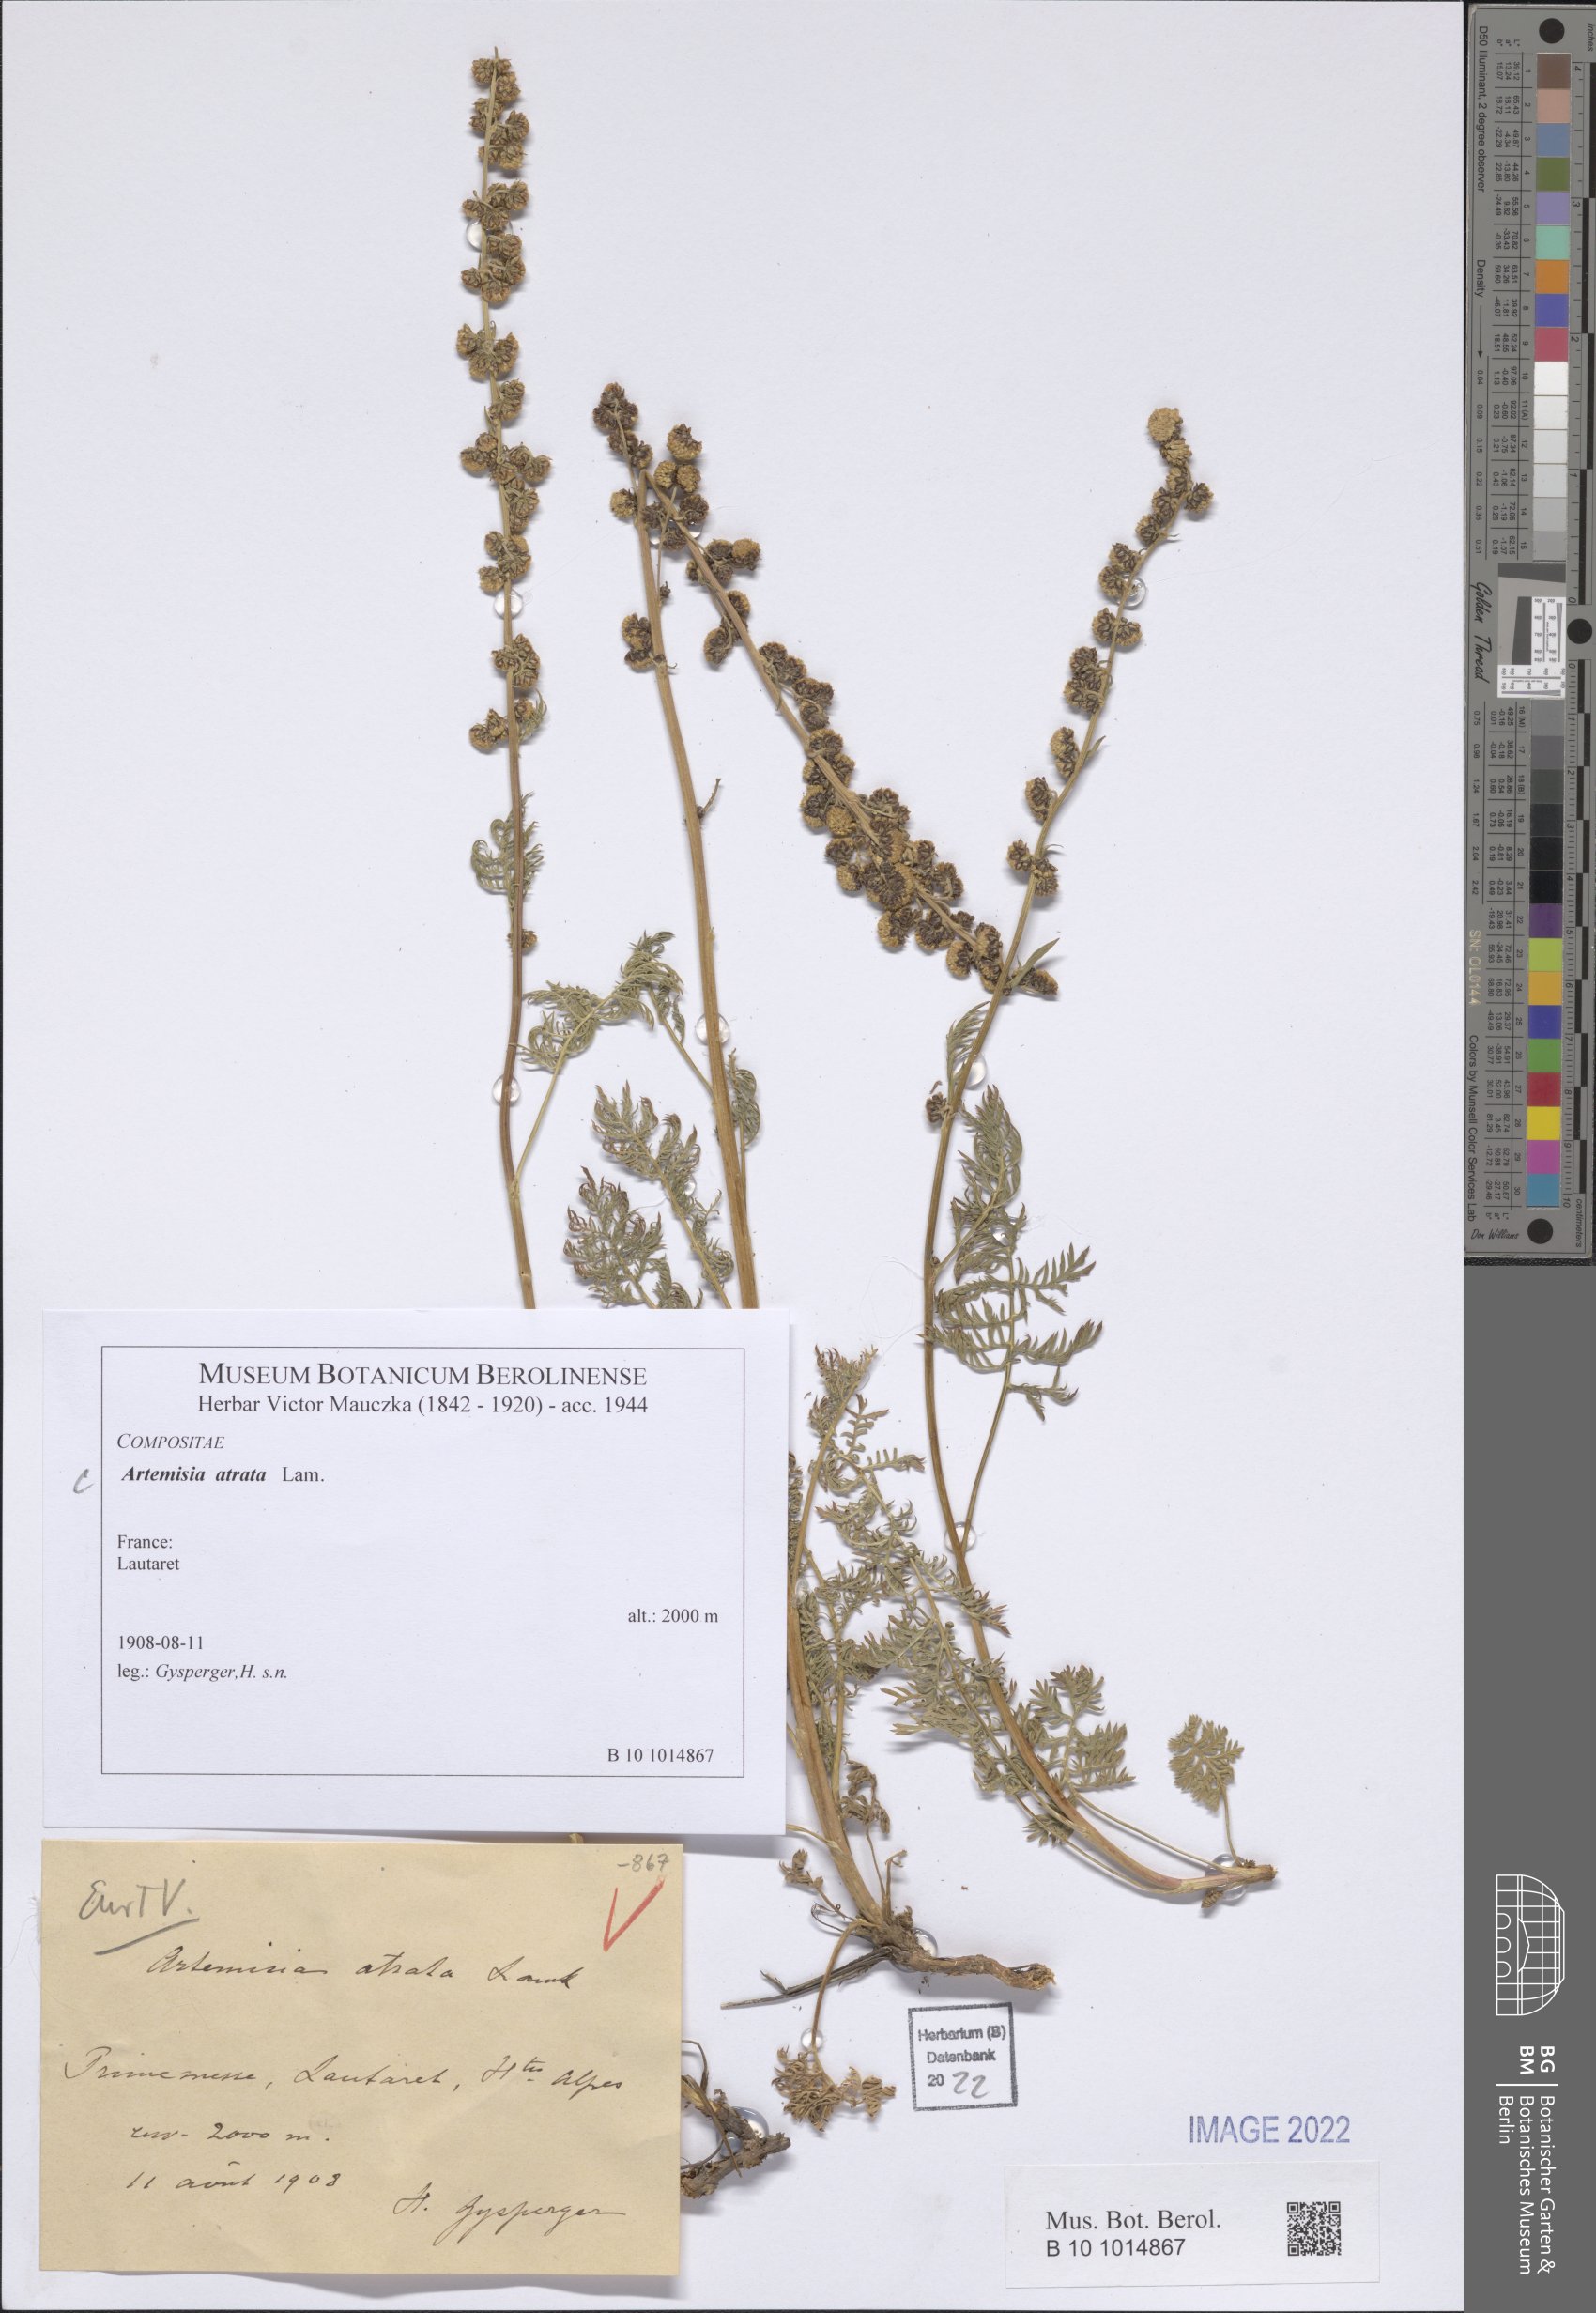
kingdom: Plantae
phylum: Tracheophyta
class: Magnoliopsida
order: Asterales
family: Asteraceae
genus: Artemisia
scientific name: Artemisia atrata
